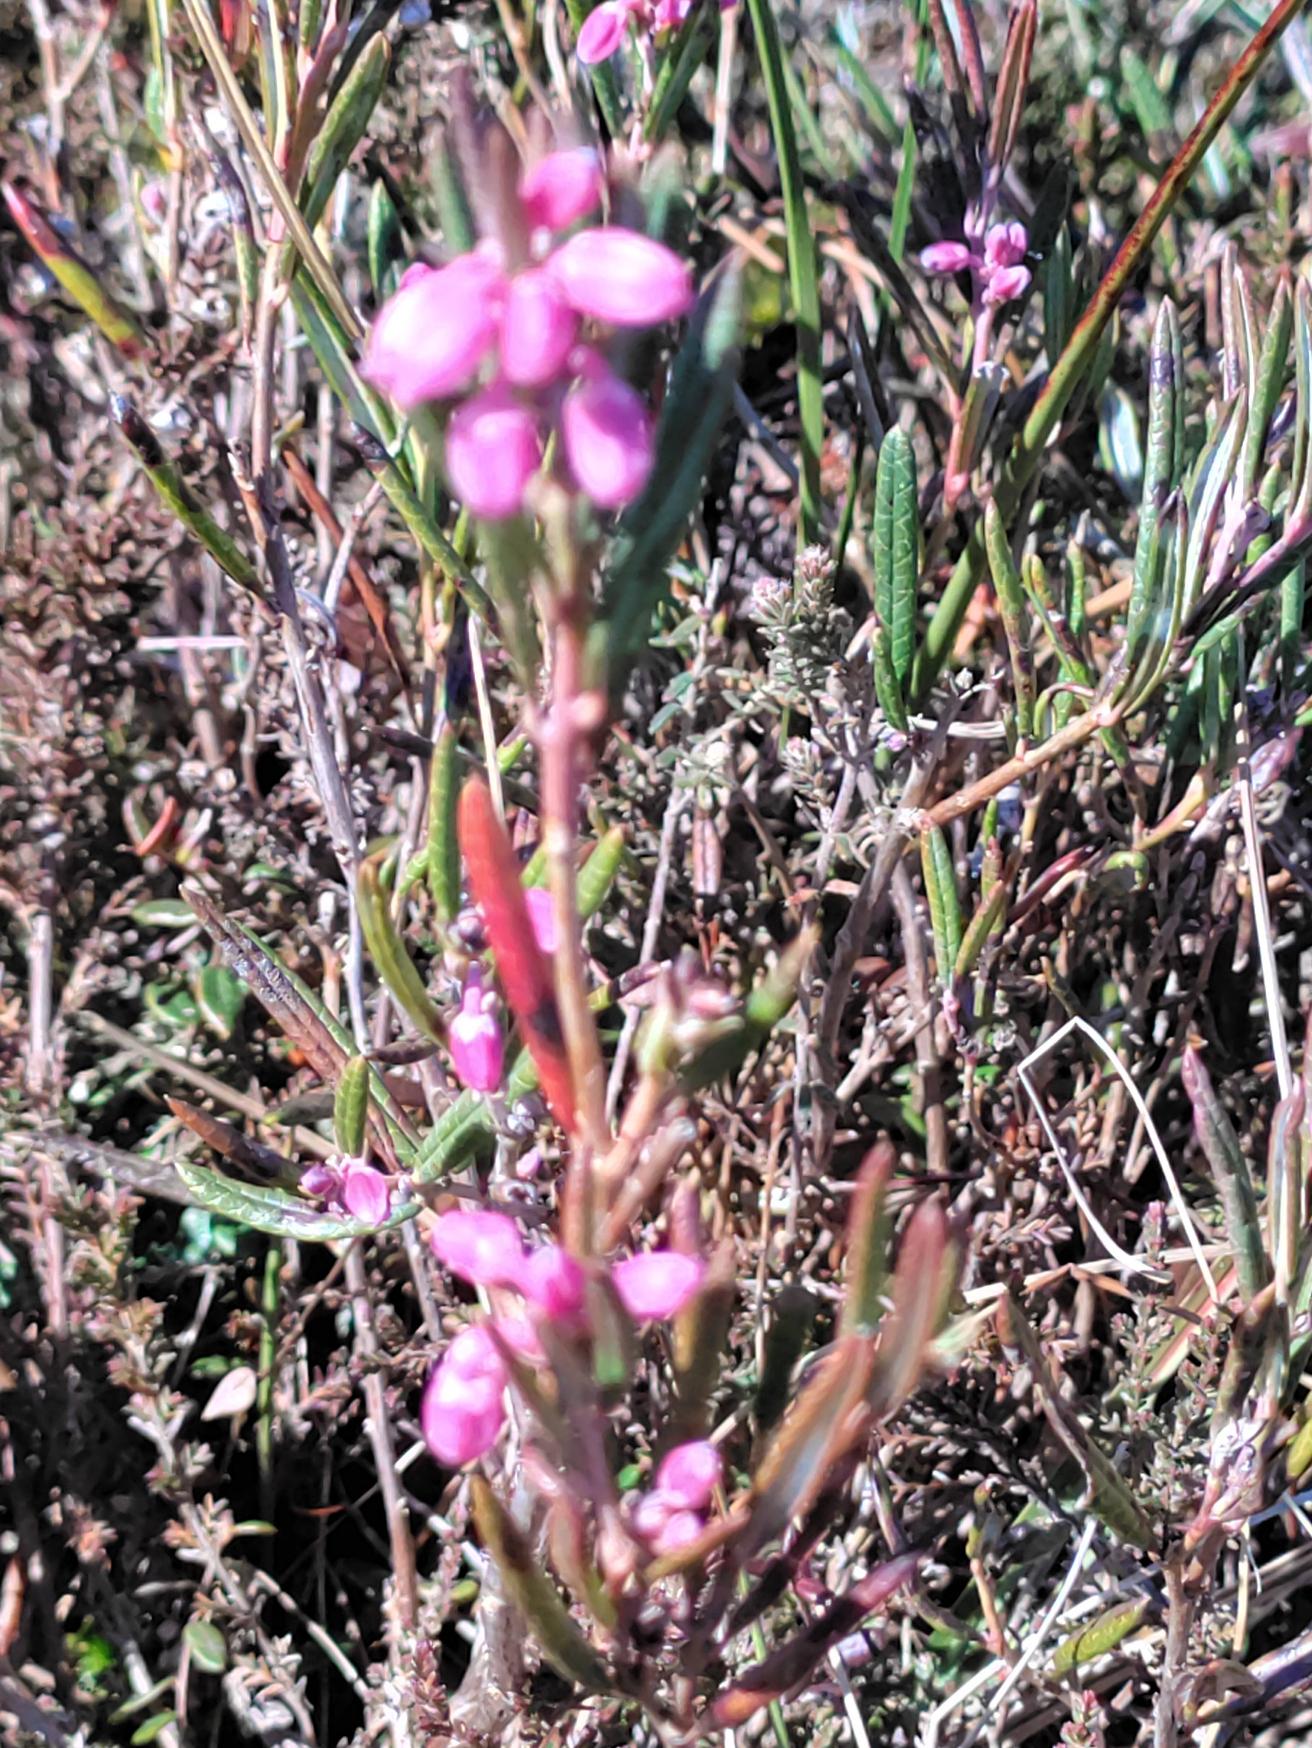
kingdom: Plantae
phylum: Tracheophyta
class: Magnoliopsida
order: Ericales
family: Ericaceae
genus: Andromeda
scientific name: Andromeda polifolia
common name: Rosmarinlyng
